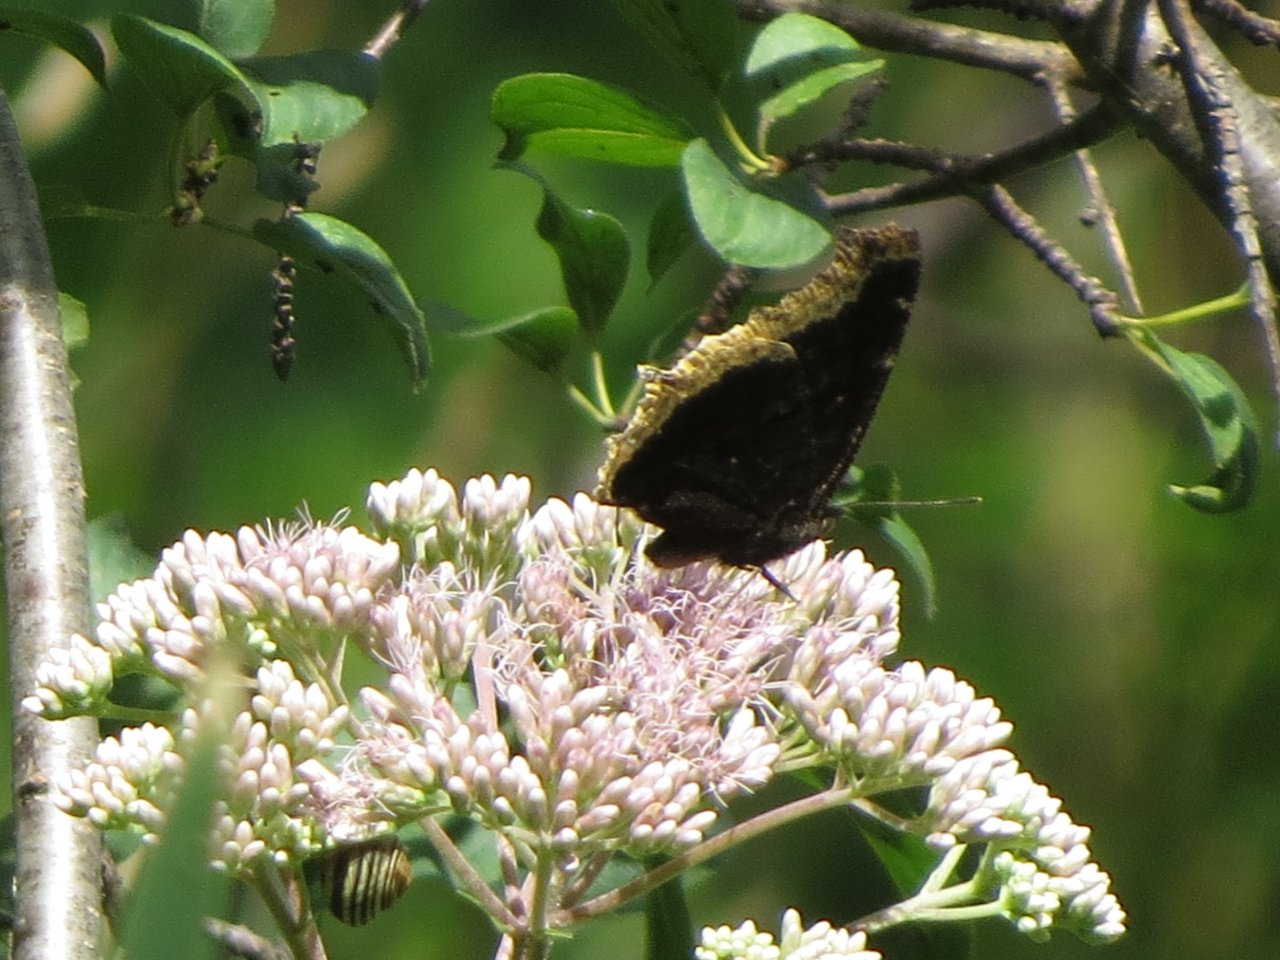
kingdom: Animalia
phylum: Arthropoda
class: Insecta
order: Lepidoptera
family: Nymphalidae
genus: Nymphalis
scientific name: Nymphalis antiopa
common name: Mourning Cloak
